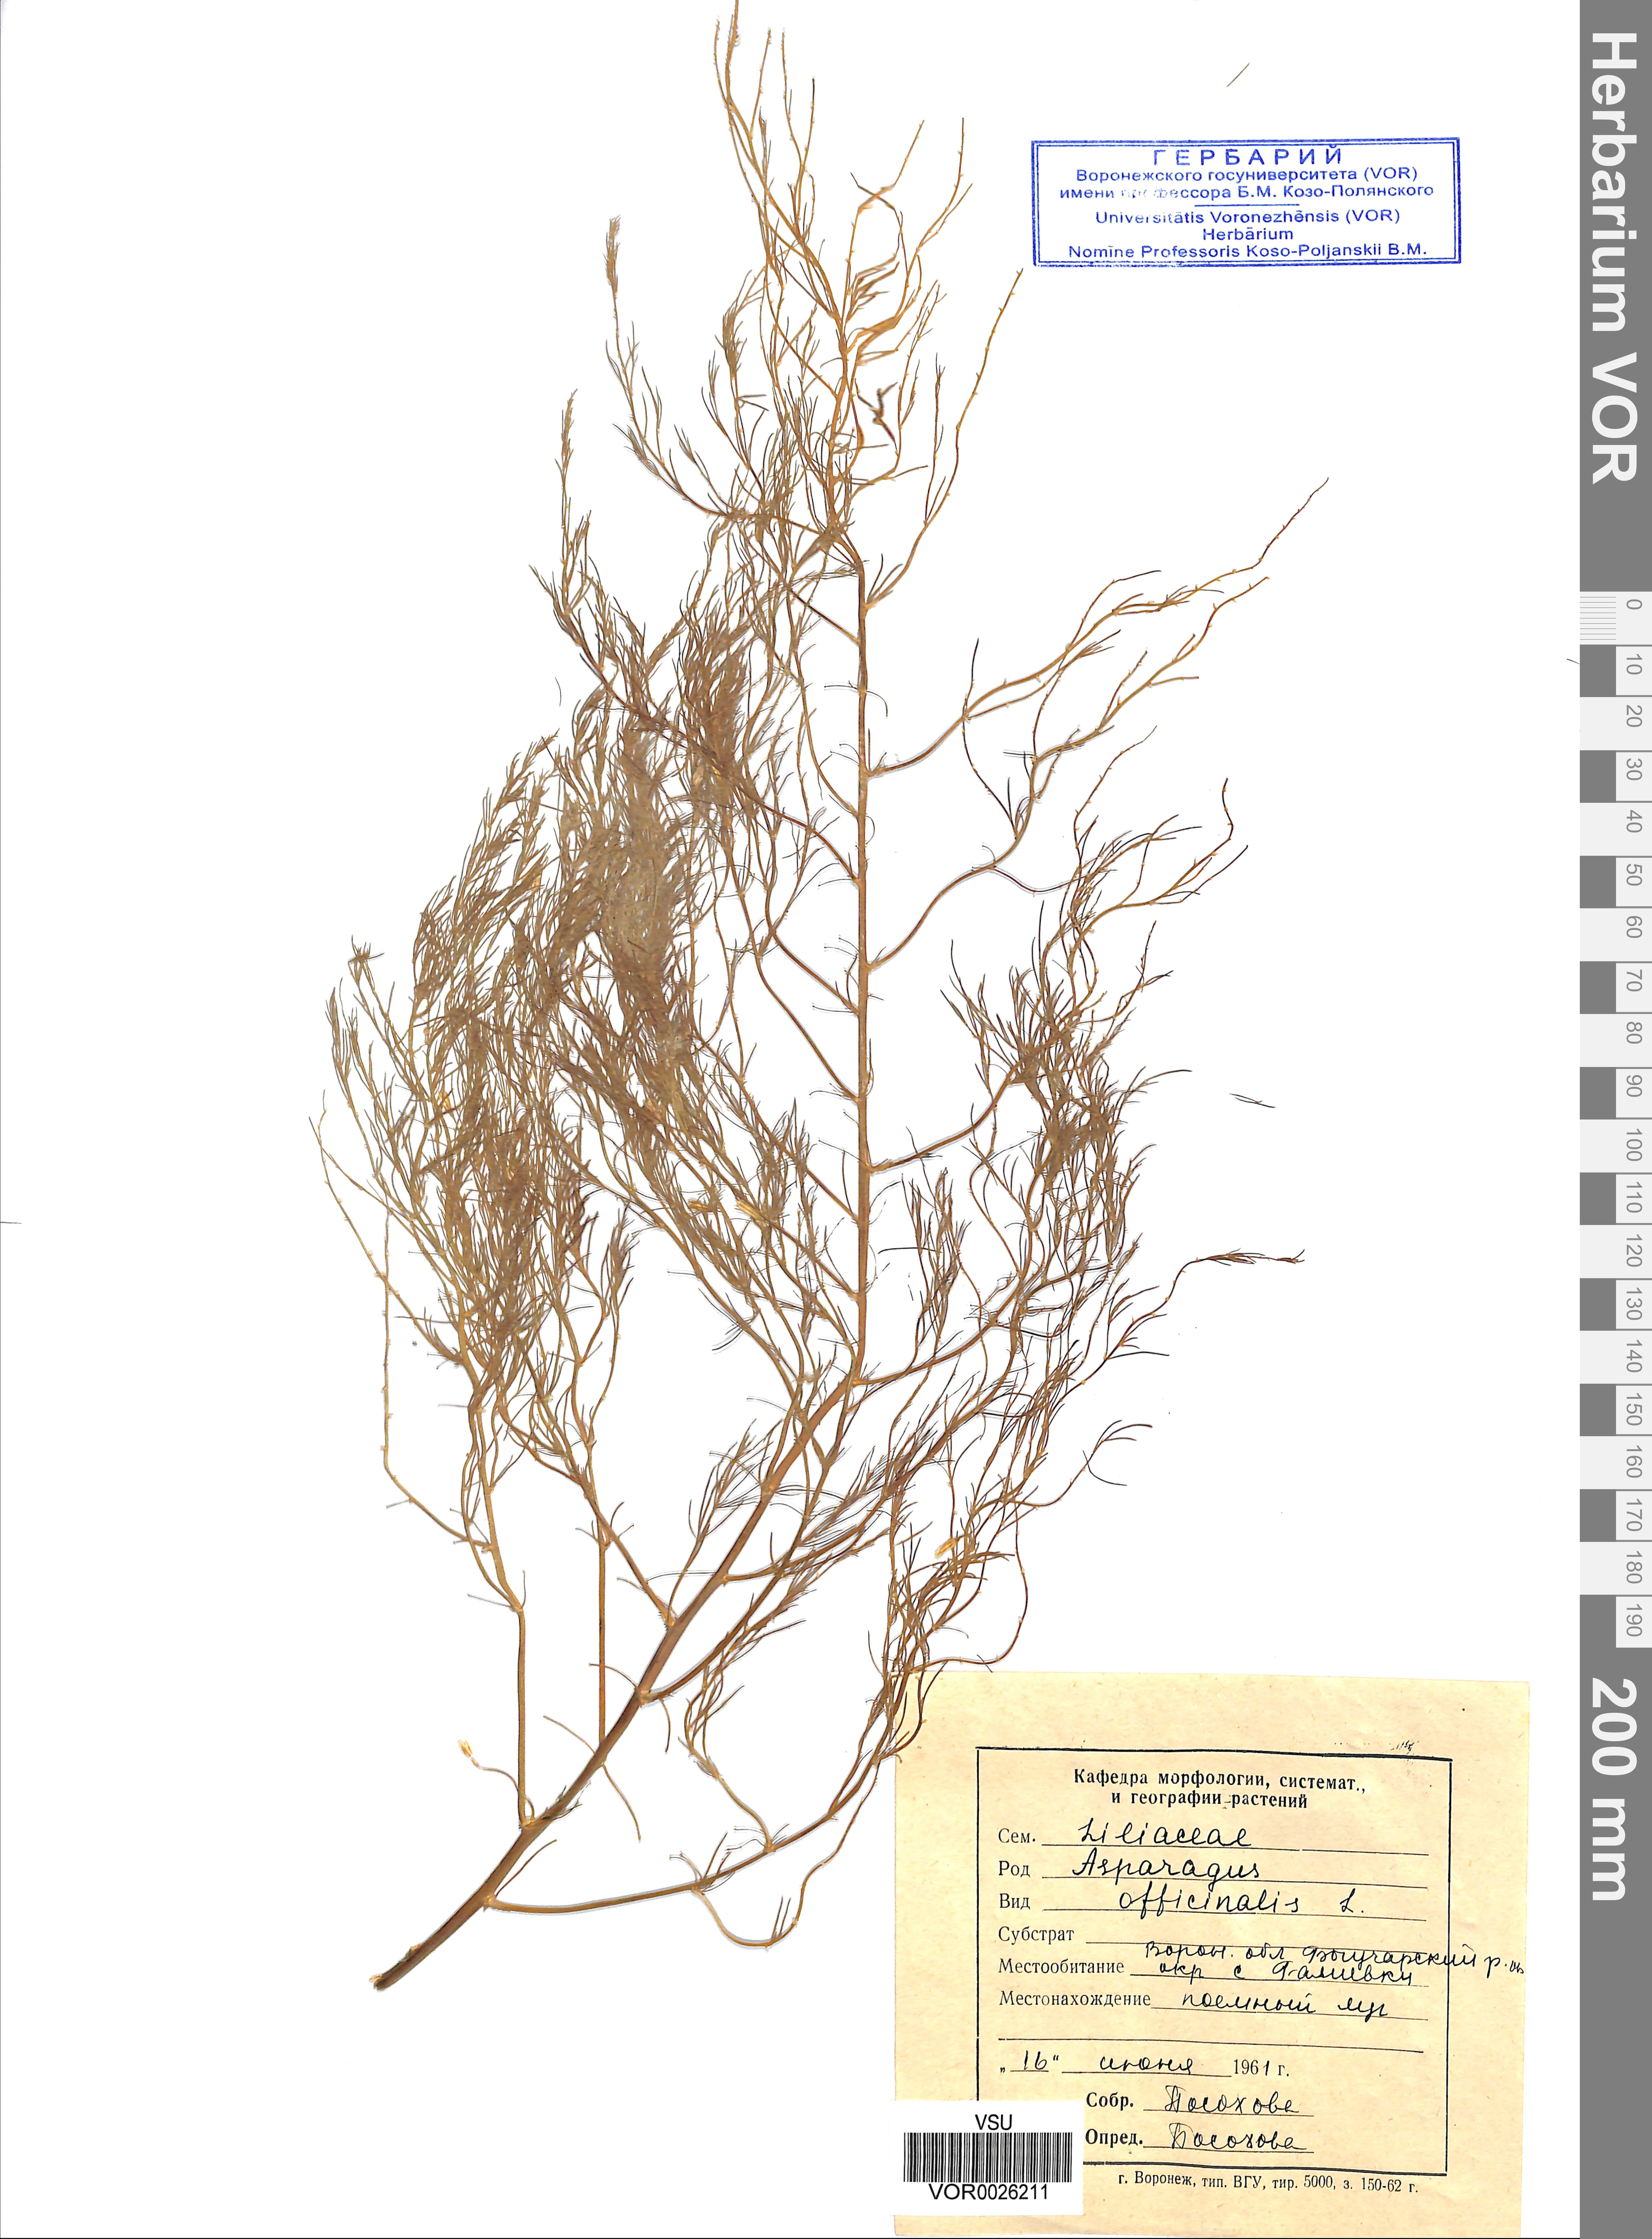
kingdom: Plantae
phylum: Tracheophyta
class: Liliopsida
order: Asparagales
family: Asparagaceae
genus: Asparagus
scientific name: Asparagus officinalis
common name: Garden asparagus
